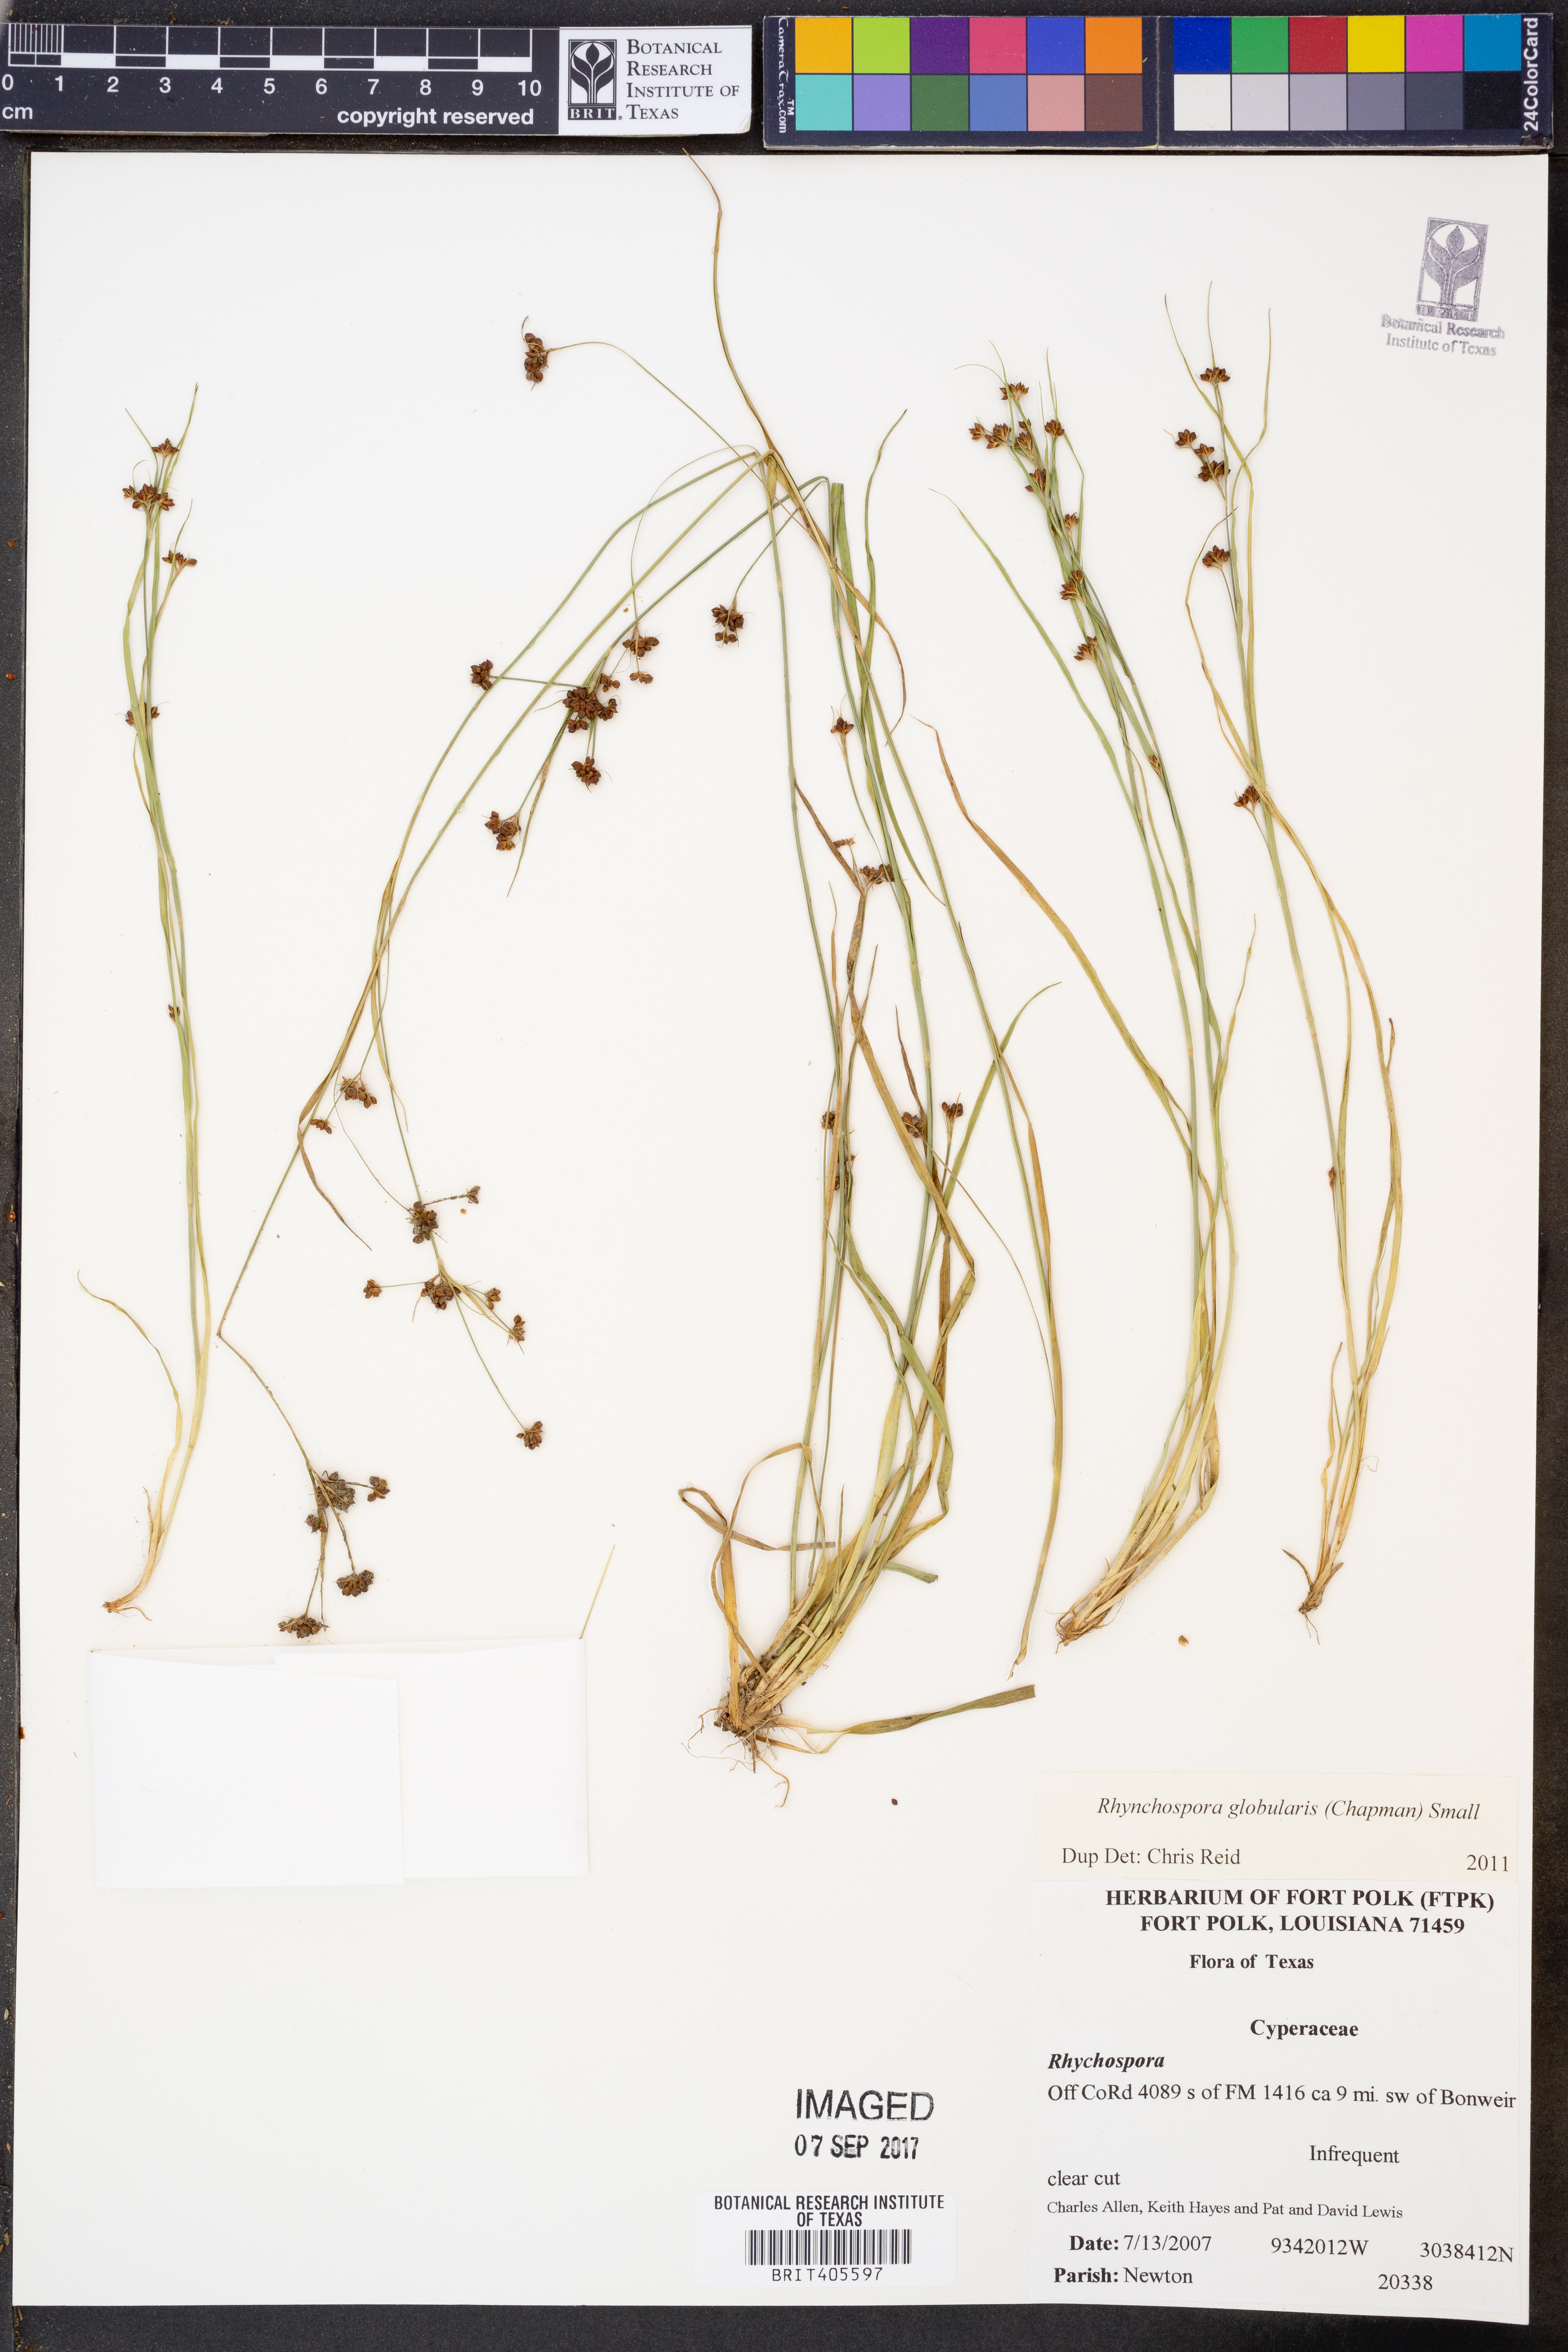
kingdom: Plantae
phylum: Tracheophyta
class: Liliopsida
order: Poales
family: Cyperaceae
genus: Rhynchospora
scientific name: Rhynchospora globularis
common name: Globe beaksedge
